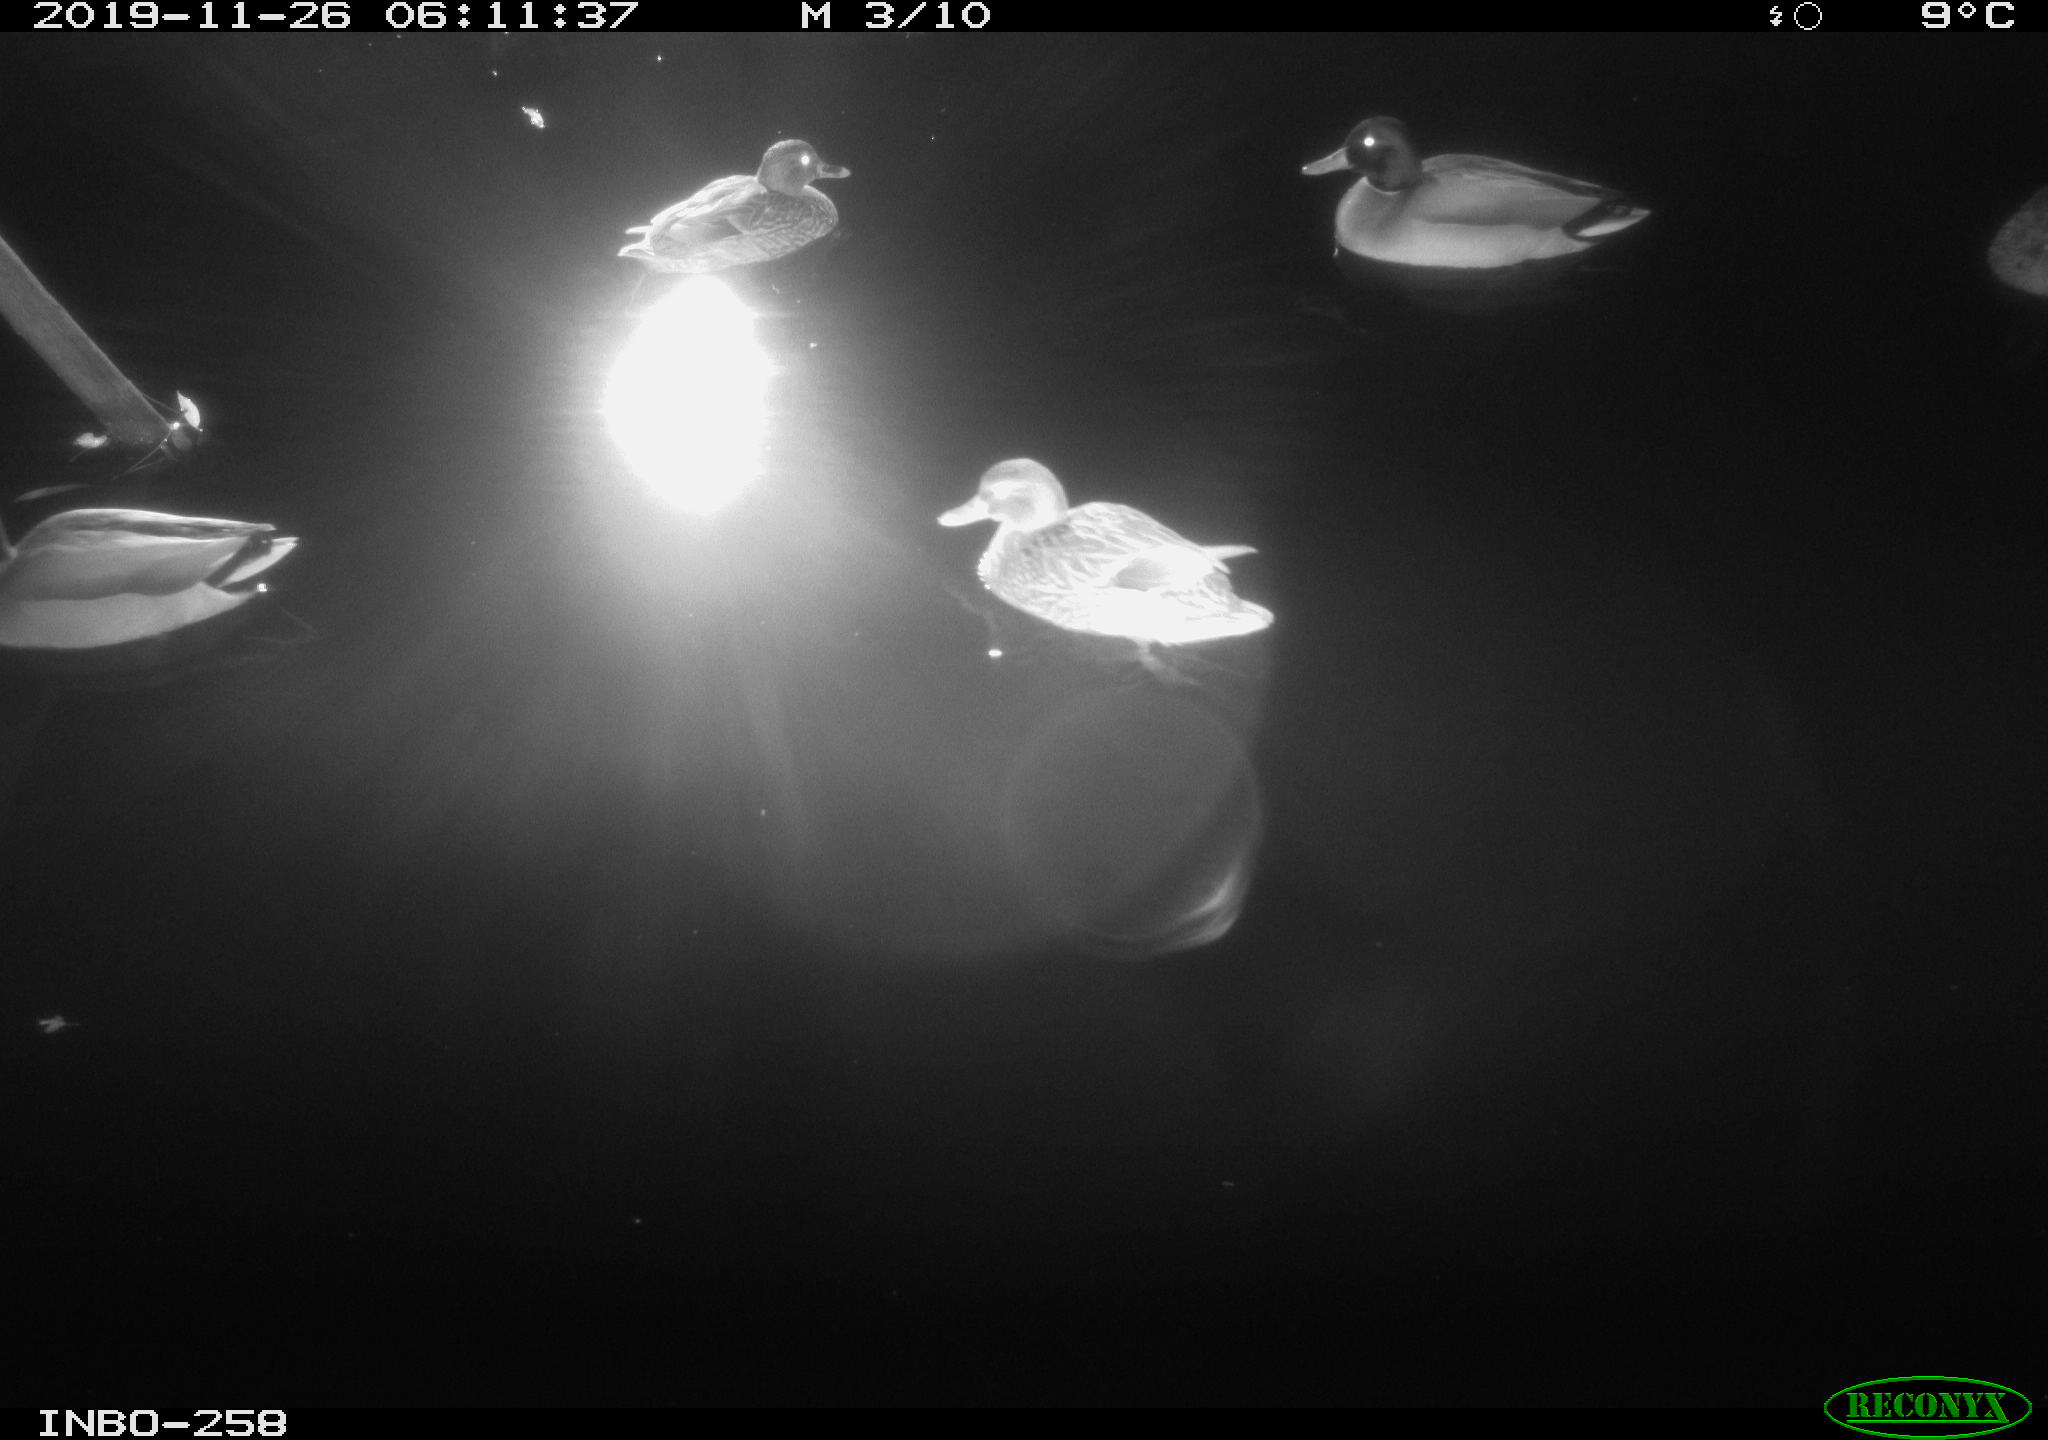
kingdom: Animalia
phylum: Chordata
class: Aves
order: Anseriformes
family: Anatidae
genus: Anas
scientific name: Anas platyrhynchos
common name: Mallard
